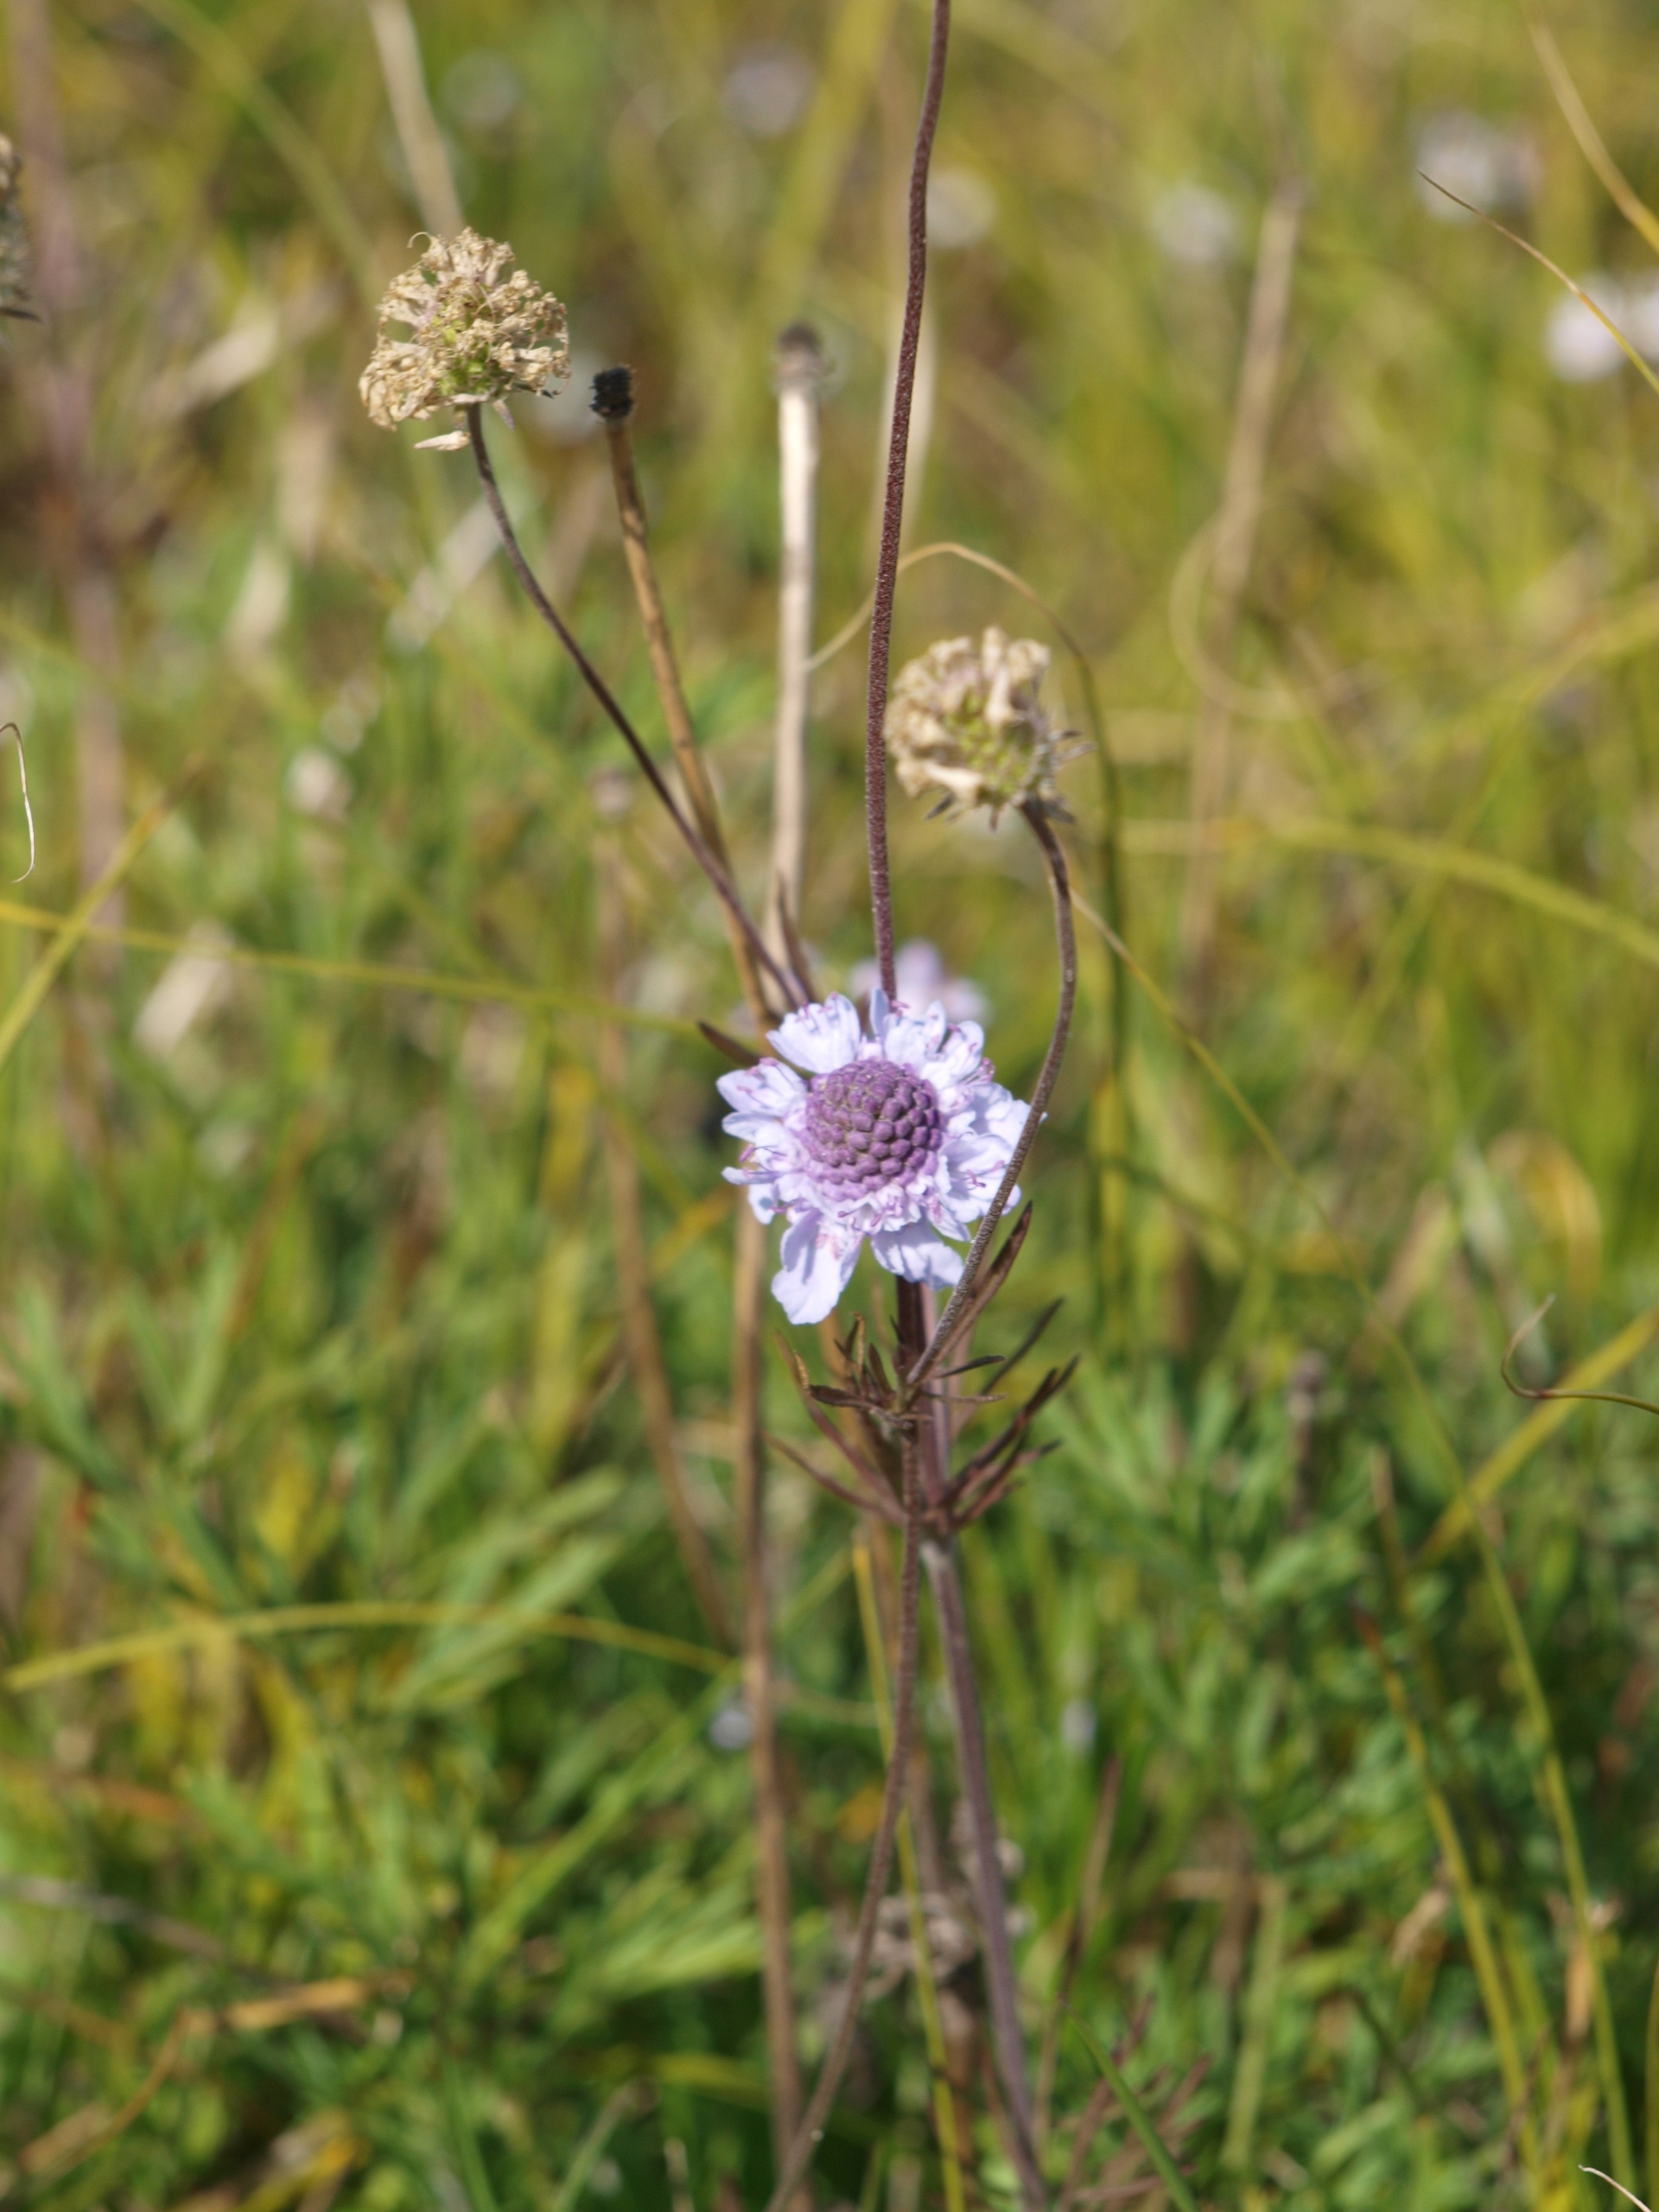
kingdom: Plantae
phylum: Tracheophyta
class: Magnoliopsida
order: Dipsacales
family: Caprifoliaceae
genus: Scabiosa
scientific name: Scabiosa canescens
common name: Vellugtende skabiose
